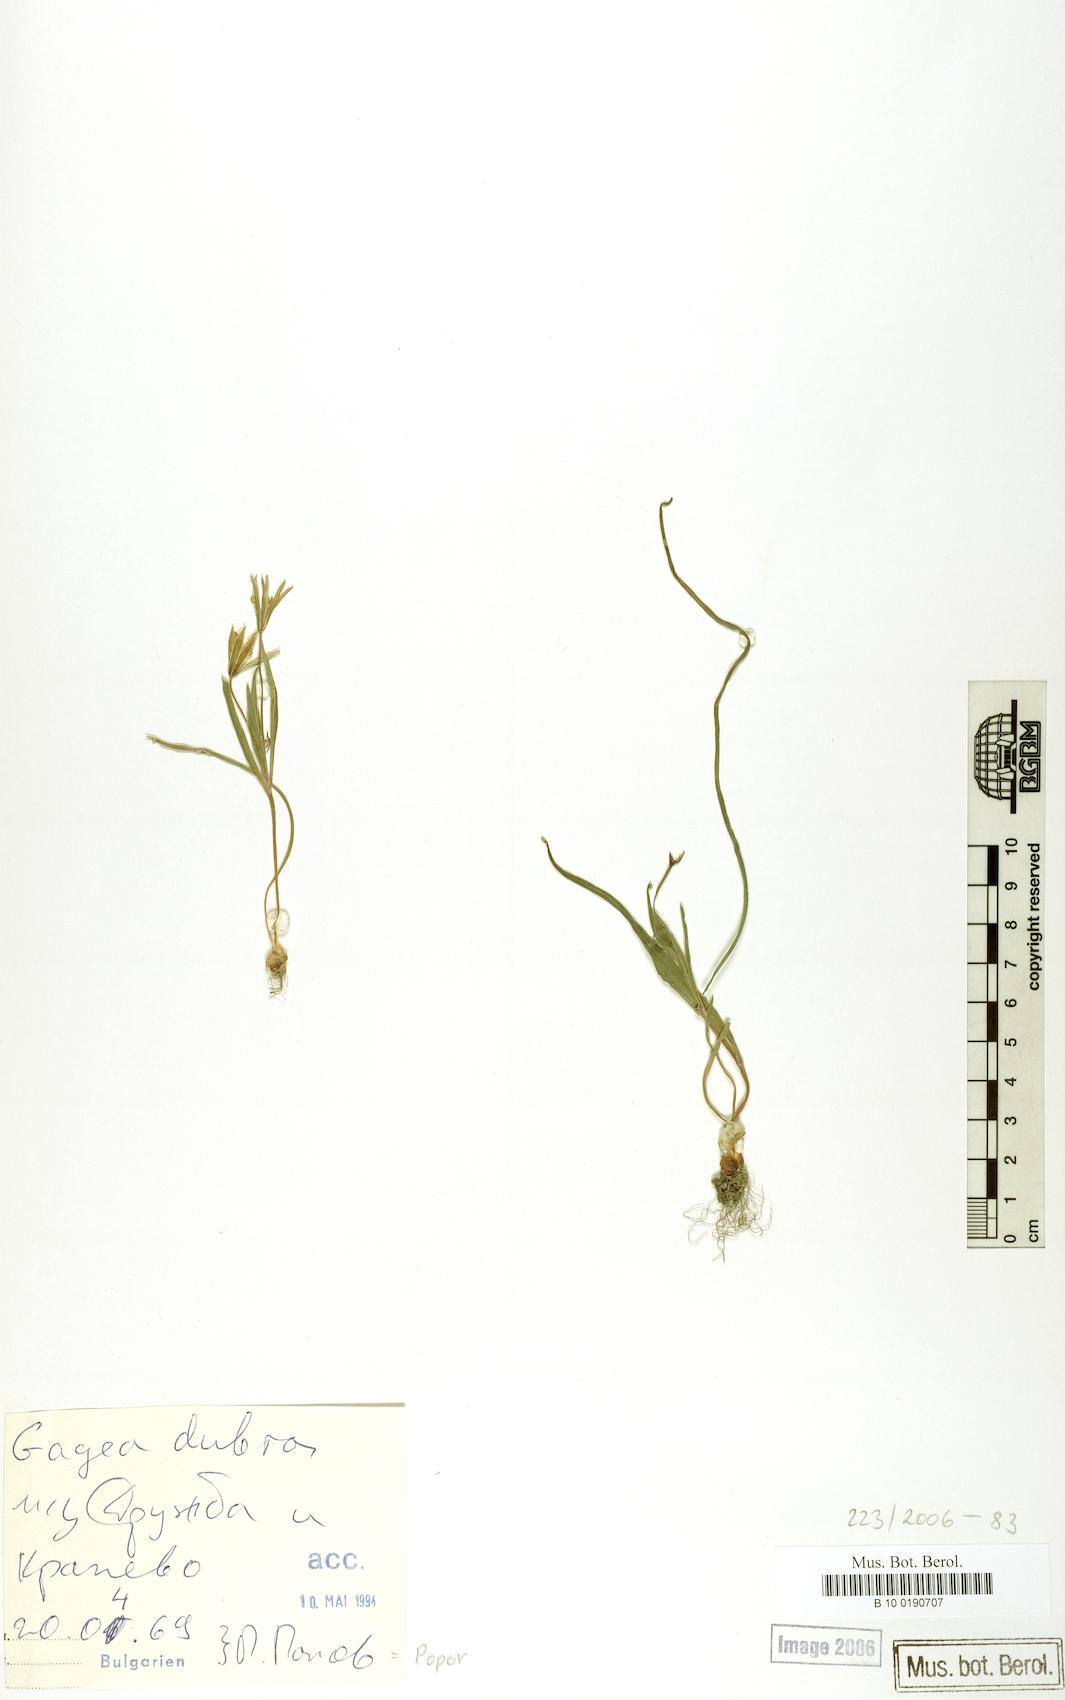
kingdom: Plantae
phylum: Tracheophyta
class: Liliopsida
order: Liliales
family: Liliaceae
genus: Gagea
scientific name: Gagea dubia
